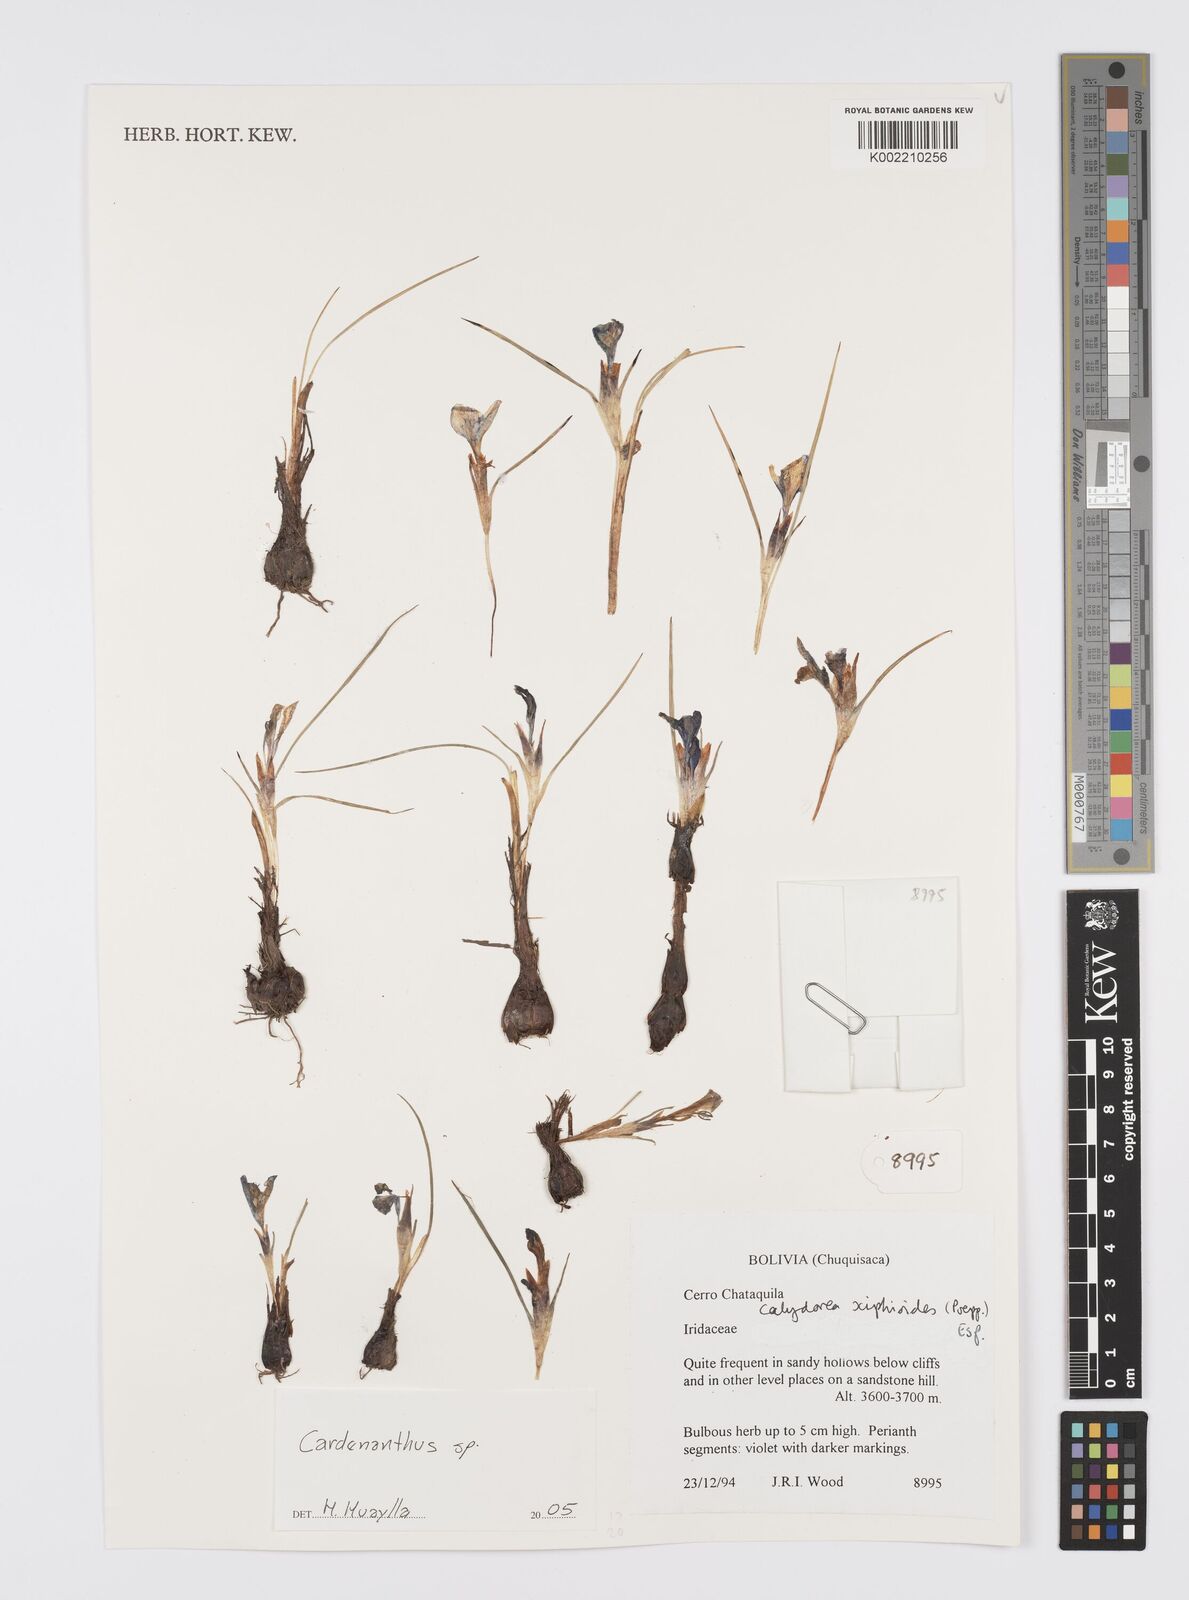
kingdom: Plantae
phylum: Tracheophyta
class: Liliopsida
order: Asparagales
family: Iridaceae
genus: Mastigostyla
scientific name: Mastigostyla
